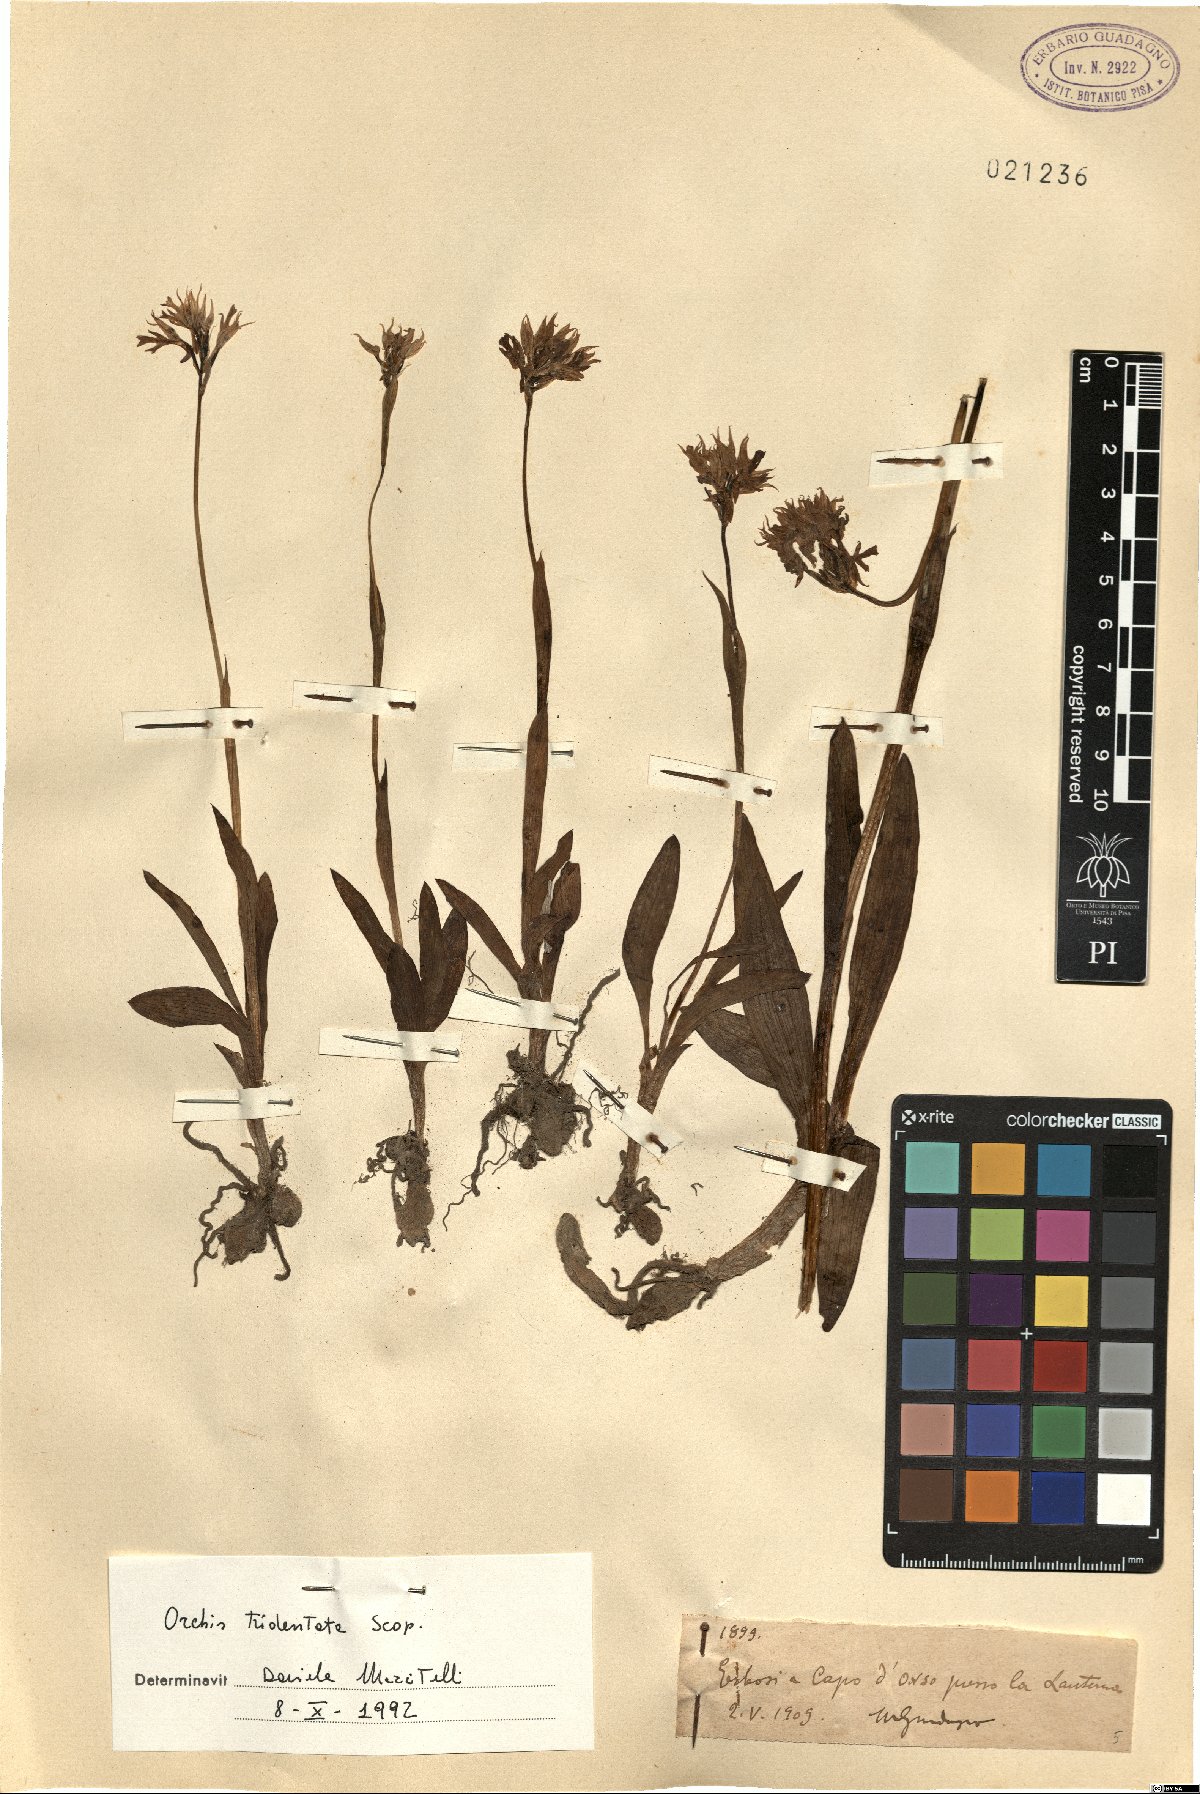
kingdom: Plantae
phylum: Tracheophyta
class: Liliopsida
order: Asparagales
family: Orchidaceae
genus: Neotinea
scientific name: Neotinea tridentata
